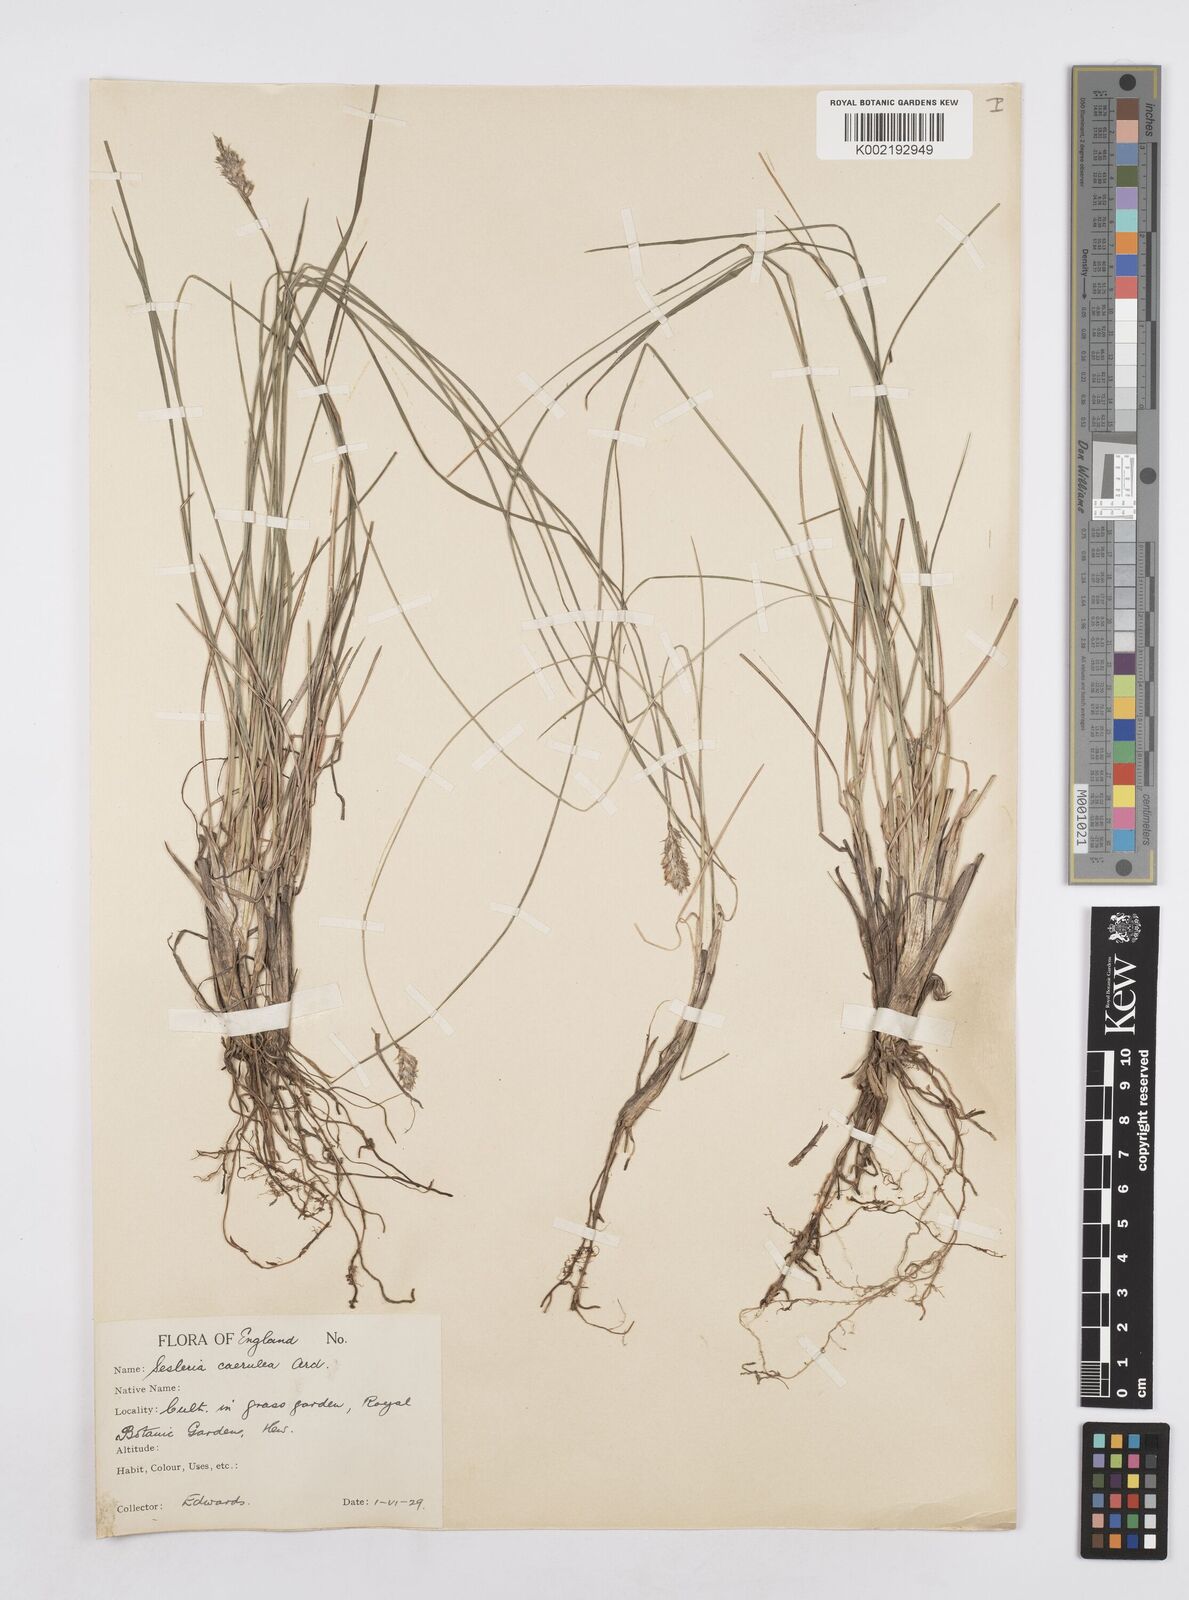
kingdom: Plantae
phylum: Tracheophyta
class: Liliopsida
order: Poales
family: Poaceae
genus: Sesleria
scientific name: Sesleria caerulea
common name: Blue moor-grass
